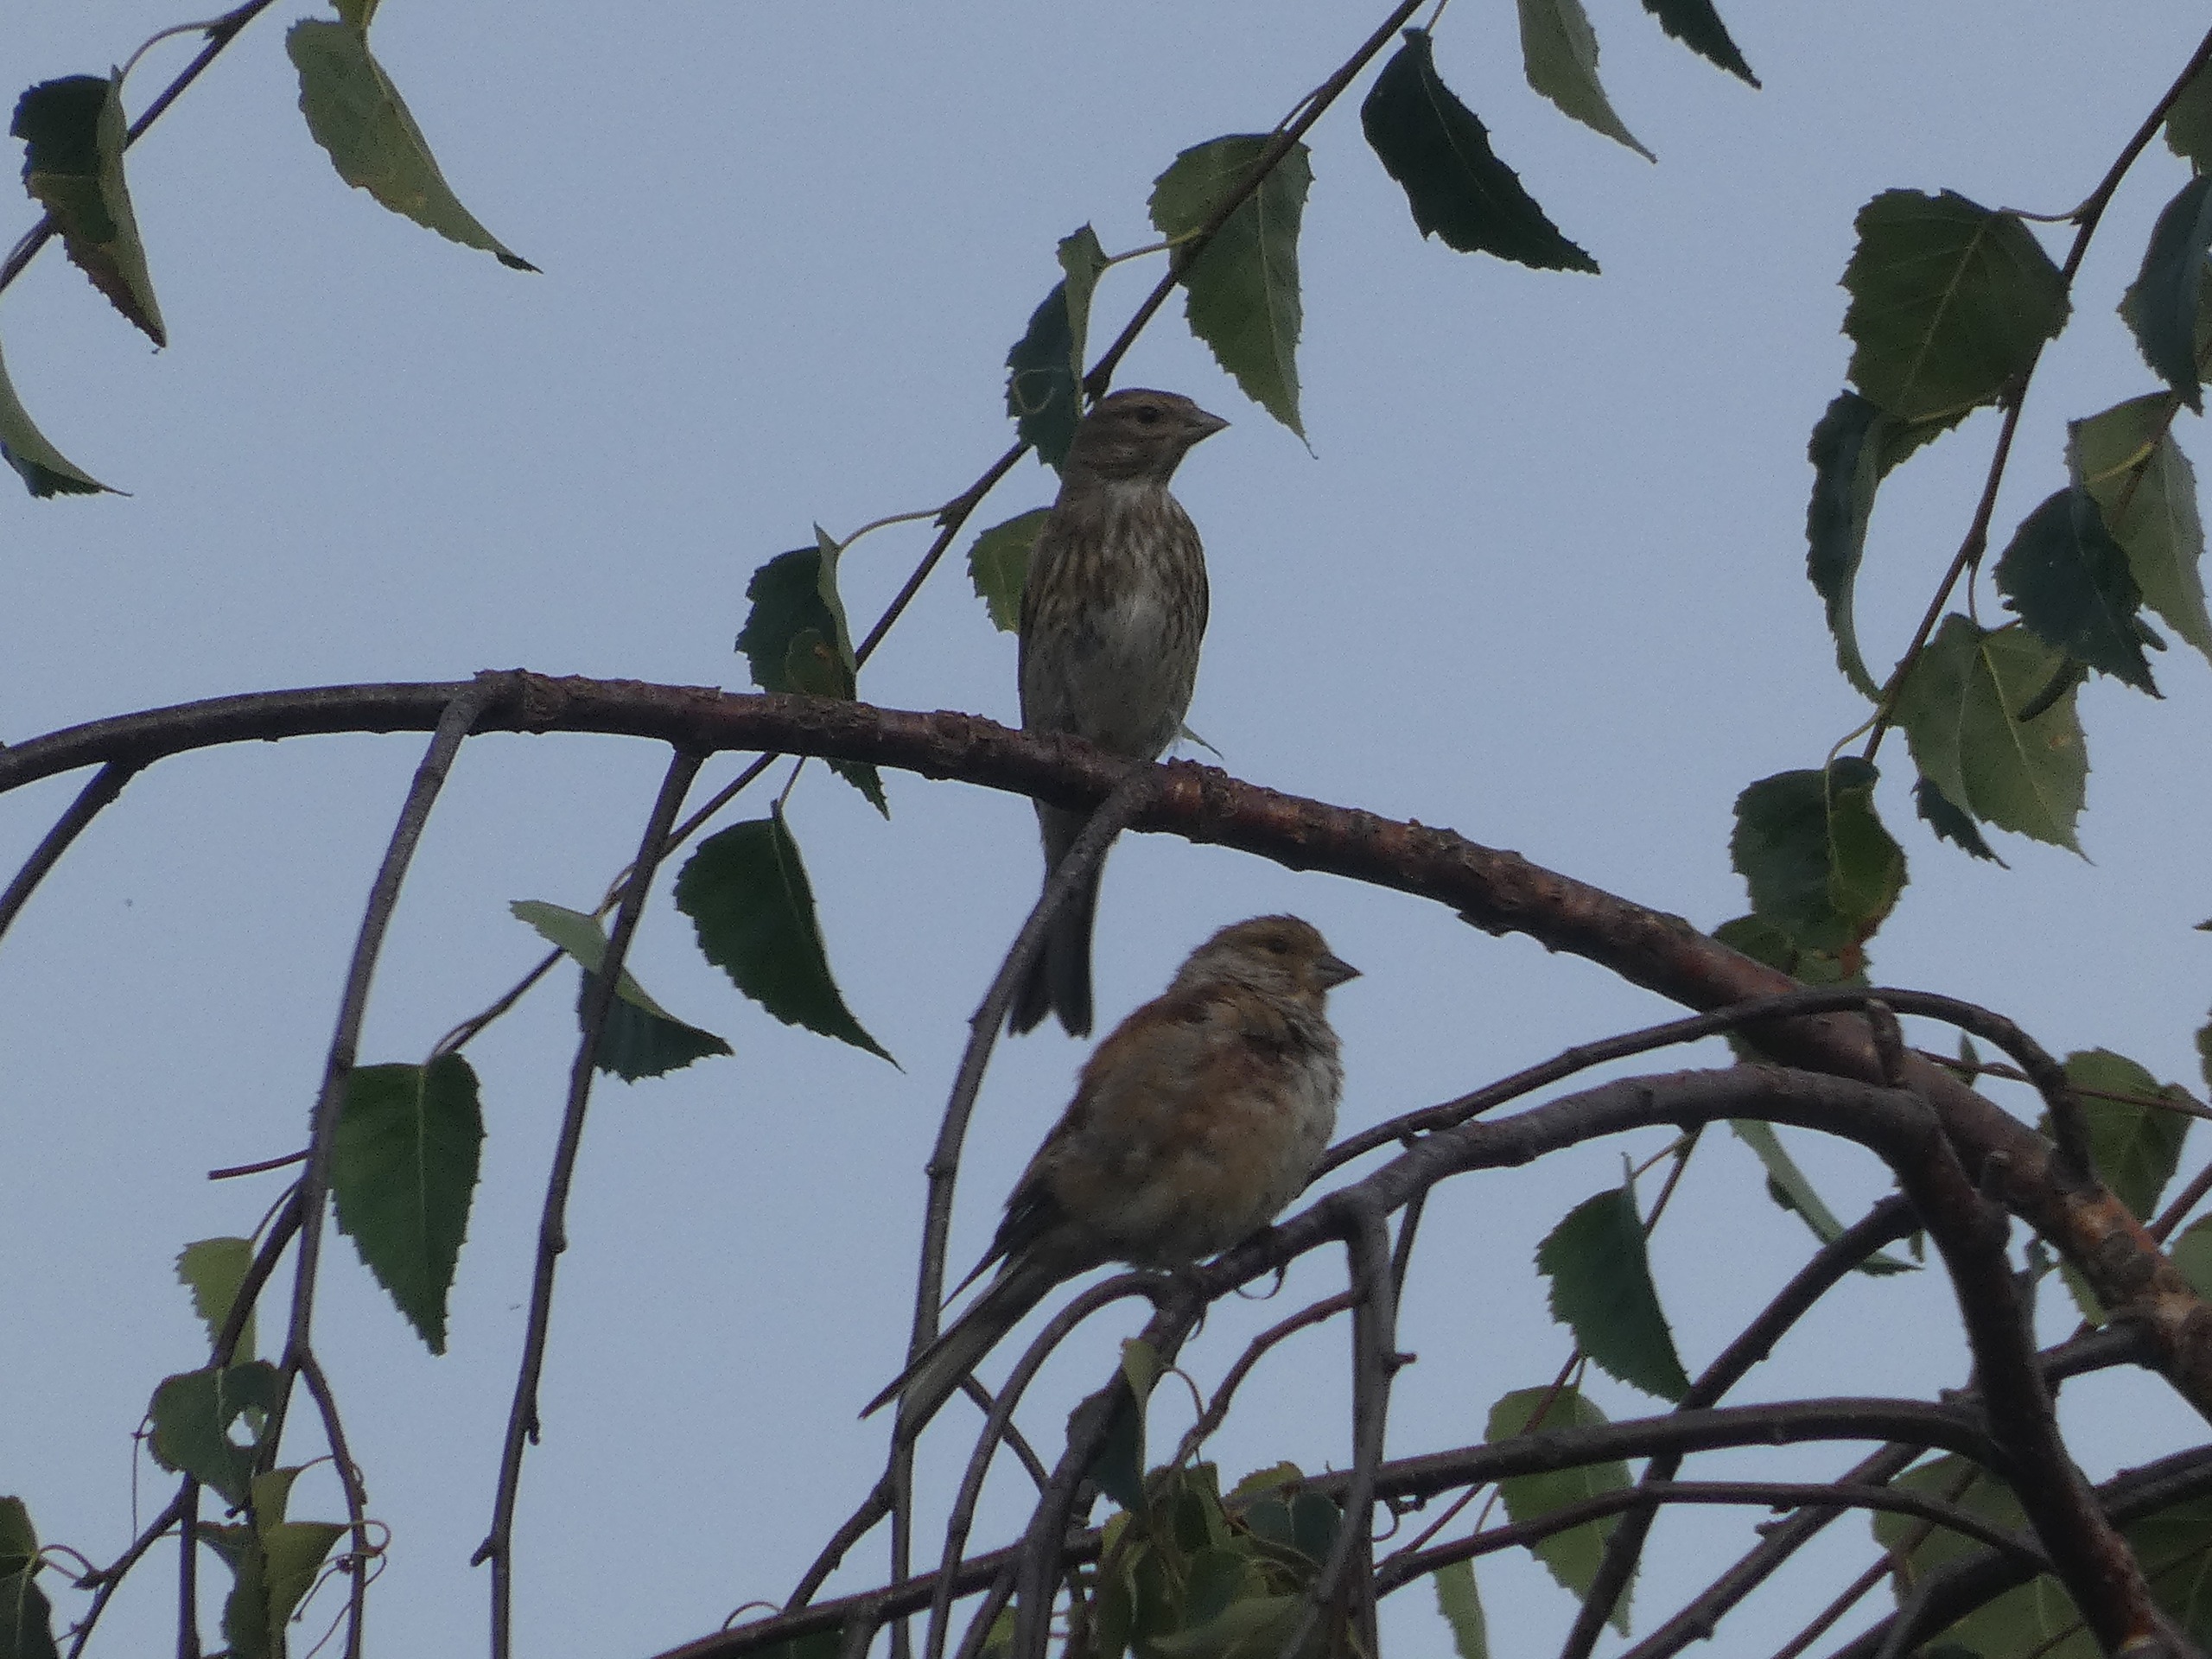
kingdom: Animalia
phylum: Chordata
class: Aves
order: Passeriformes
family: Fringillidae
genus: Linaria
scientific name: Linaria cannabina
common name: Tornirisk
